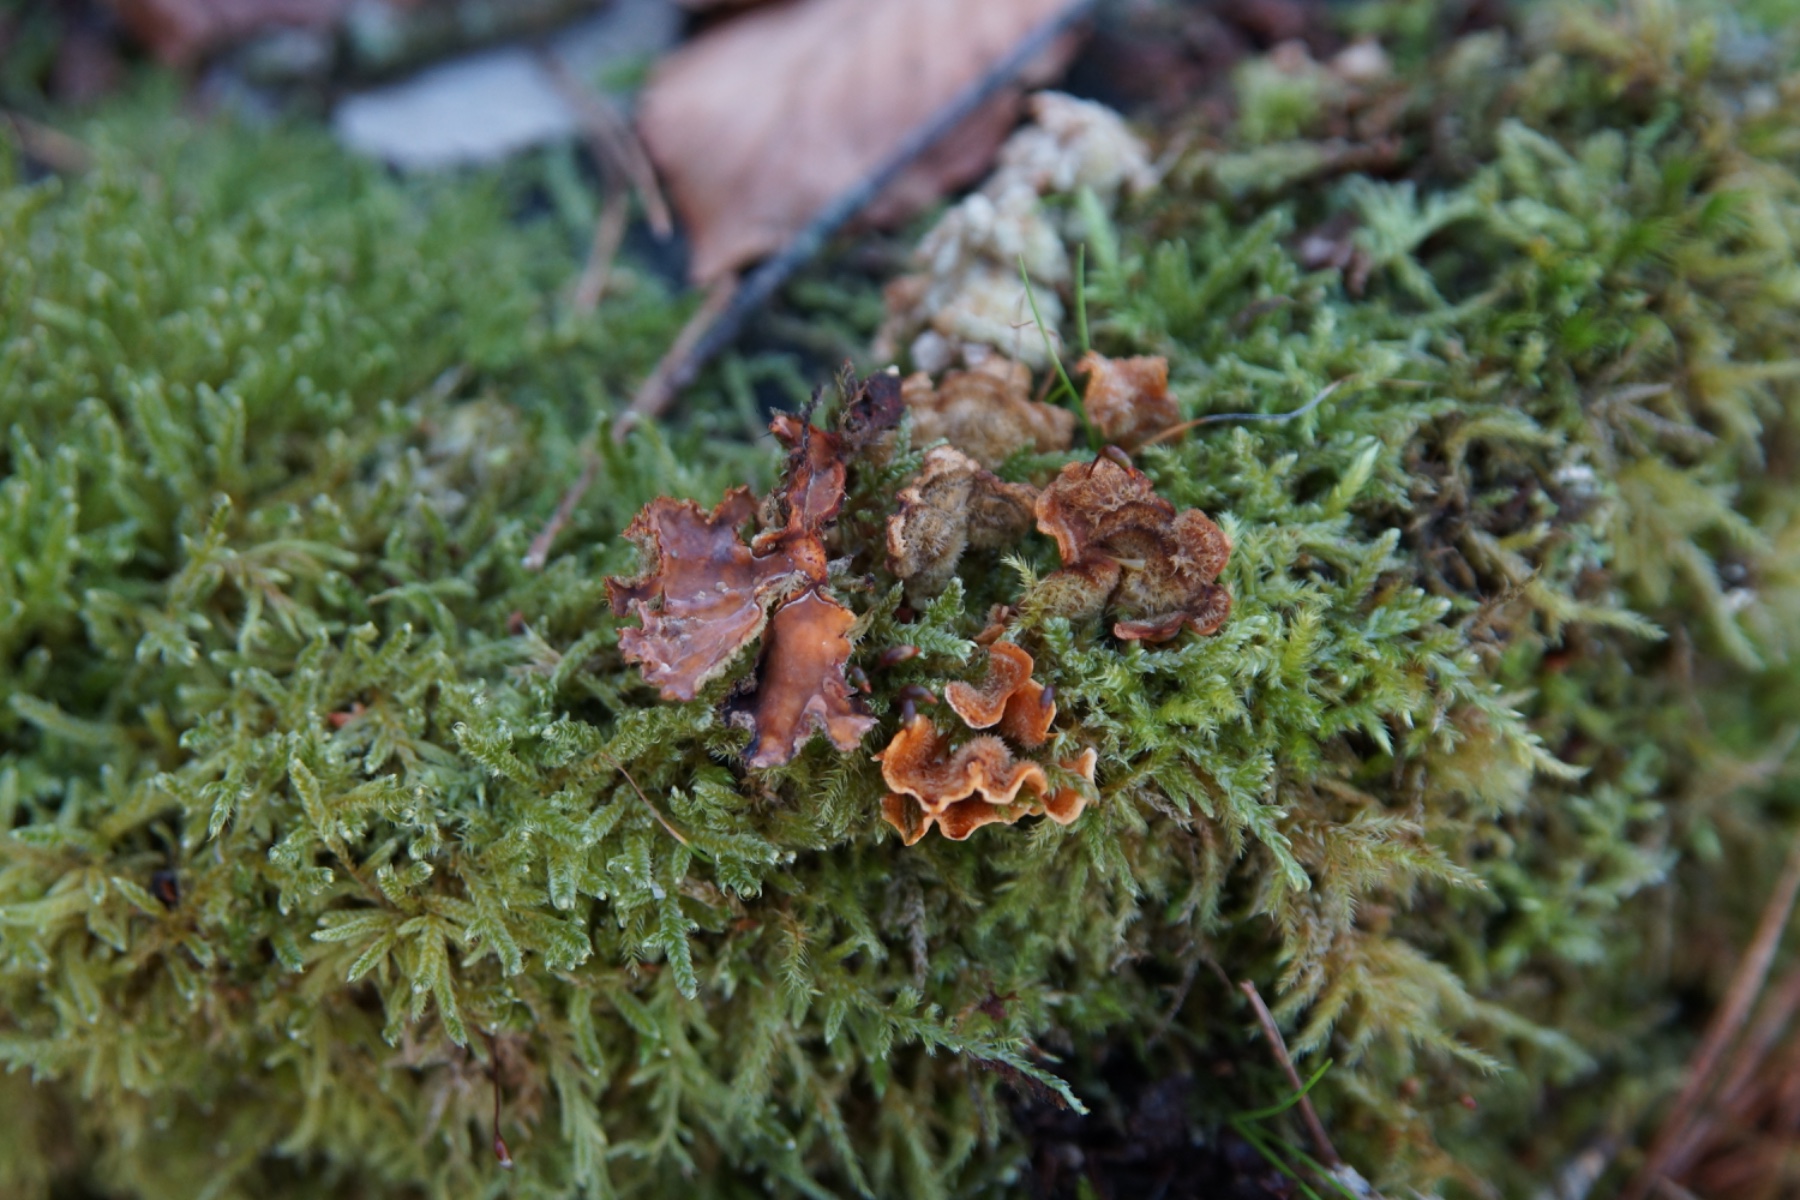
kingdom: Fungi
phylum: Basidiomycota
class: Agaricomycetes
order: Russulales
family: Stereaceae
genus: Stereum
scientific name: Stereum hirsutum
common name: håret lædersvamp
